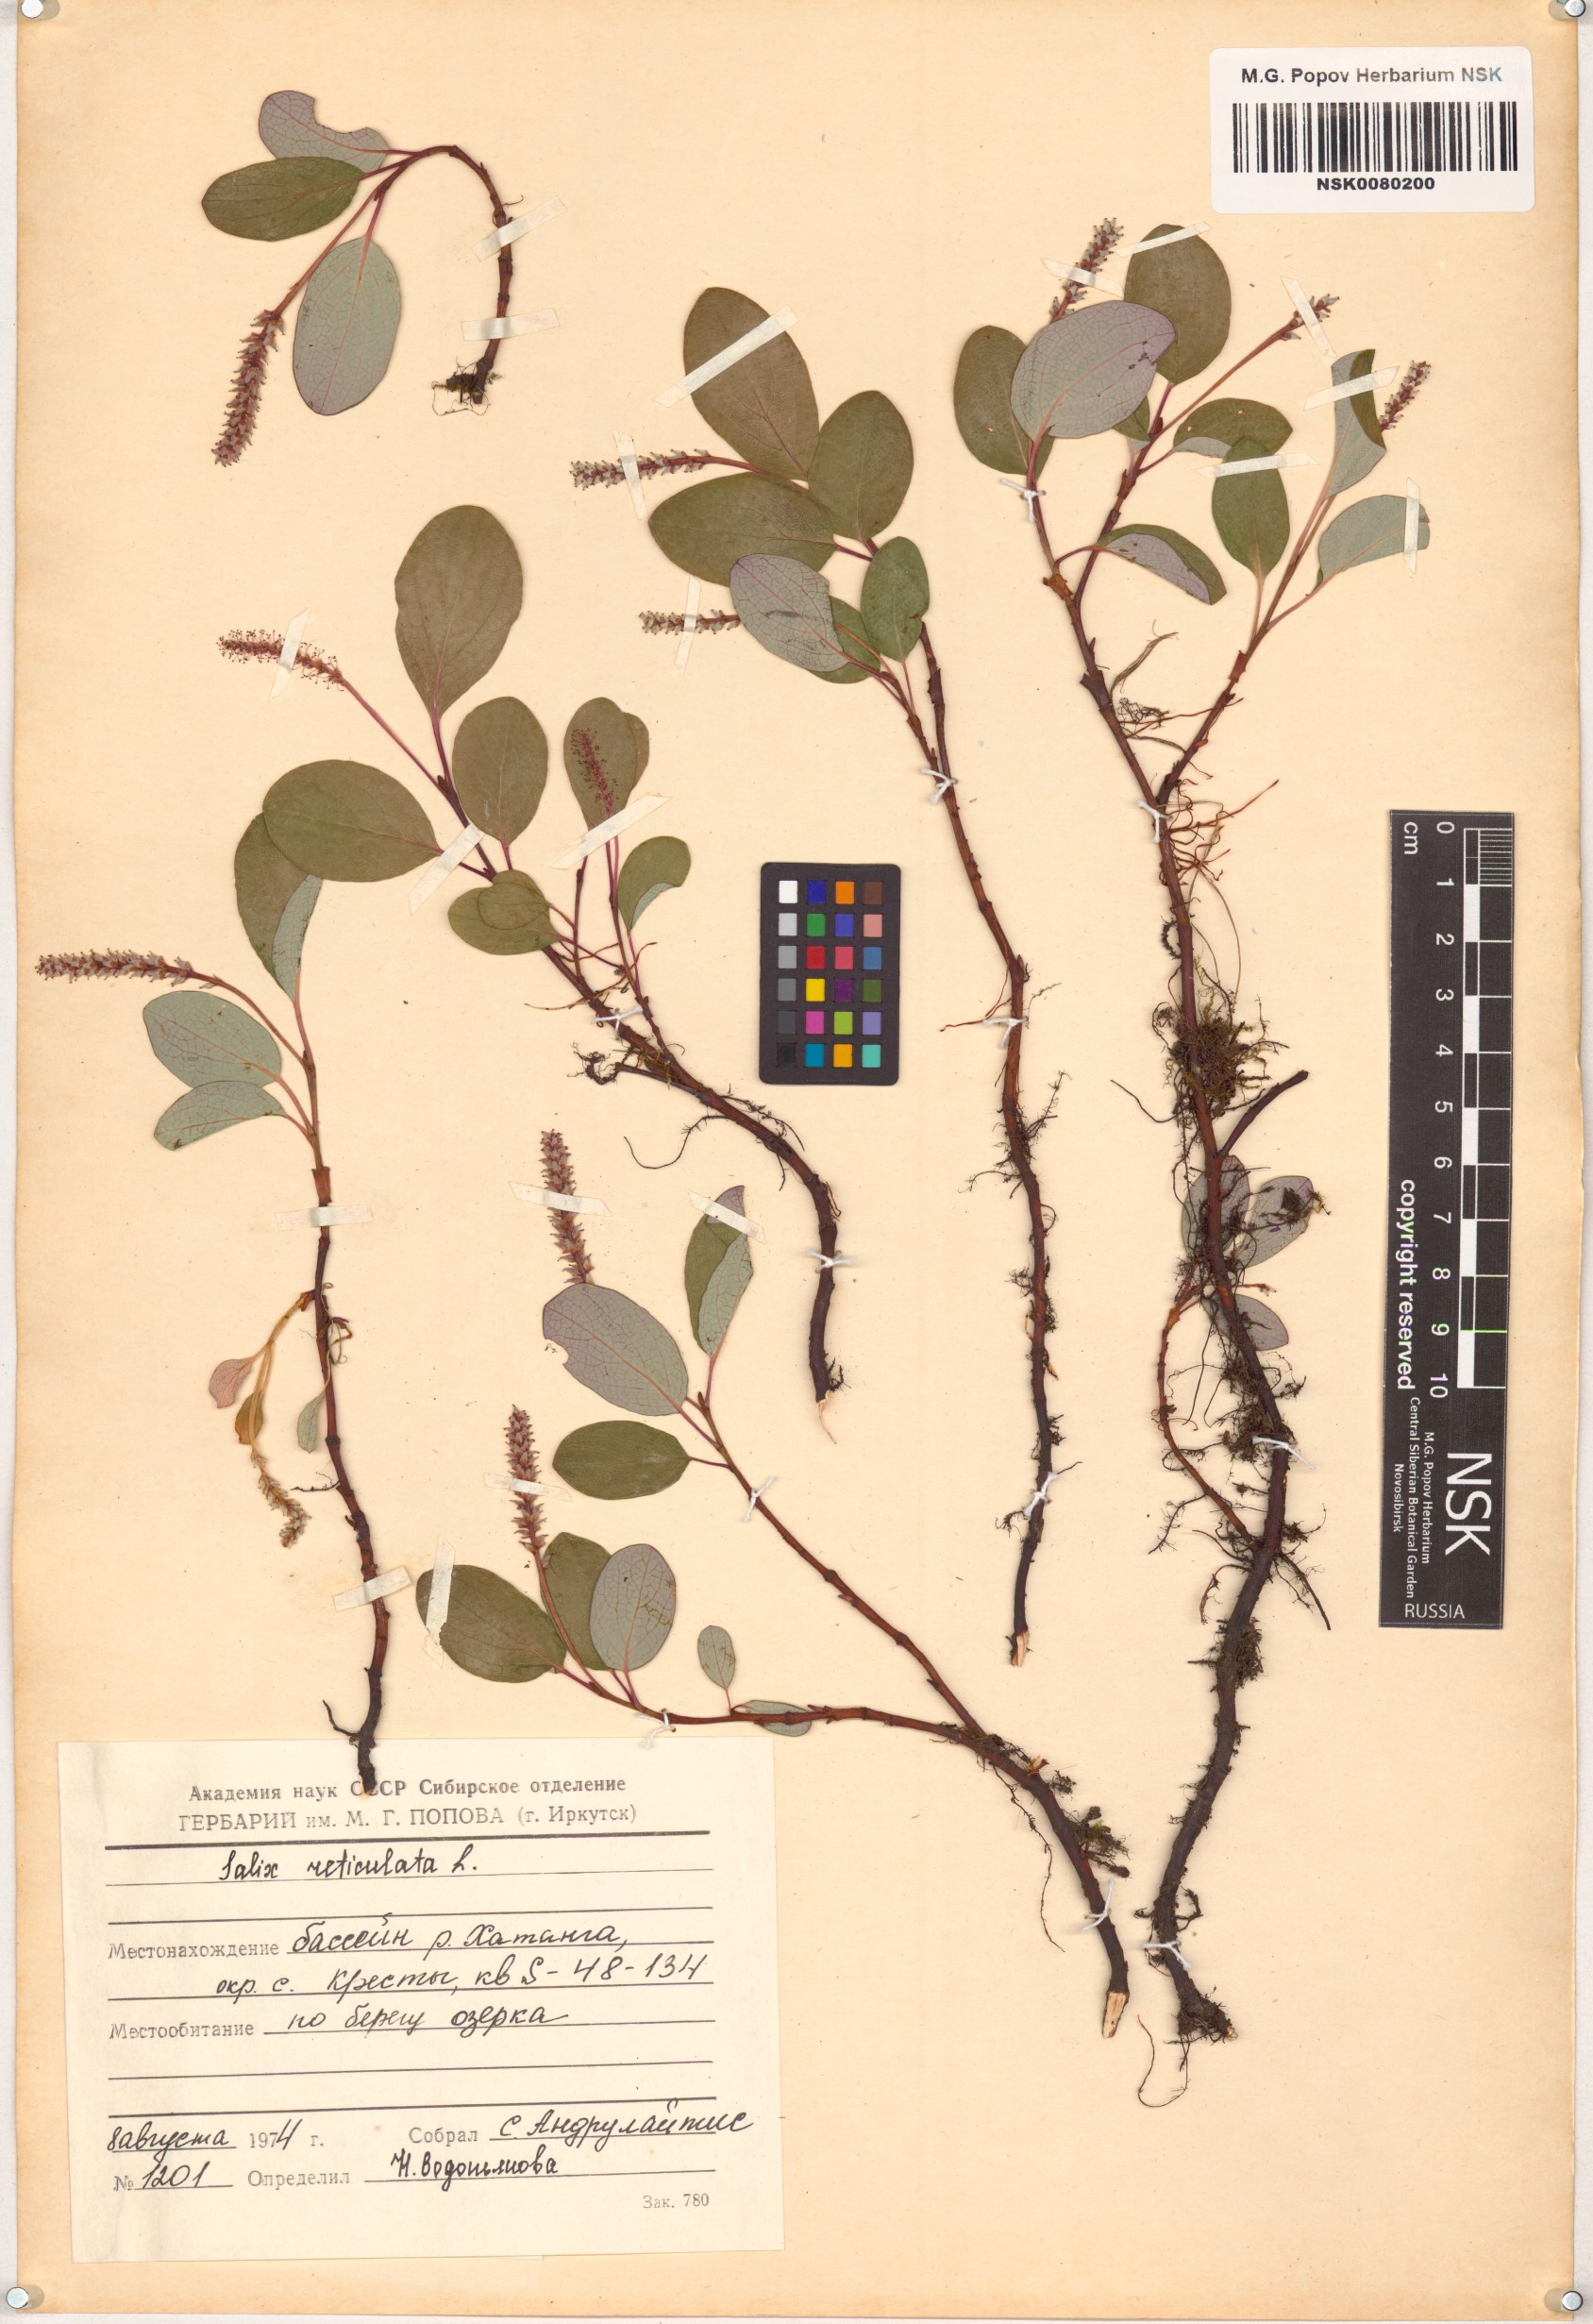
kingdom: Plantae
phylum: Tracheophyta
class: Magnoliopsida
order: Malpighiales
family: Salicaceae
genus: Salix
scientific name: Salix reticulata
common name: Net-leaved willow
